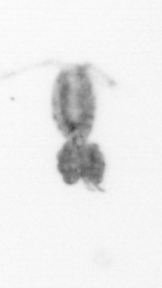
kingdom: Animalia
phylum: Arthropoda
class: Copepoda
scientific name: Copepoda
